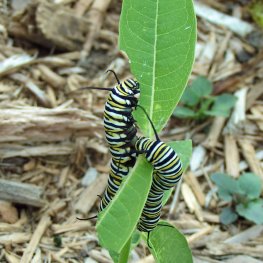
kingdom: Animalia
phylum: Arthropoda
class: Insecta
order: Lepidoptera
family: Nymphalidae
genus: Danaus
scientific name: Danaus plexippus
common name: Monarch
